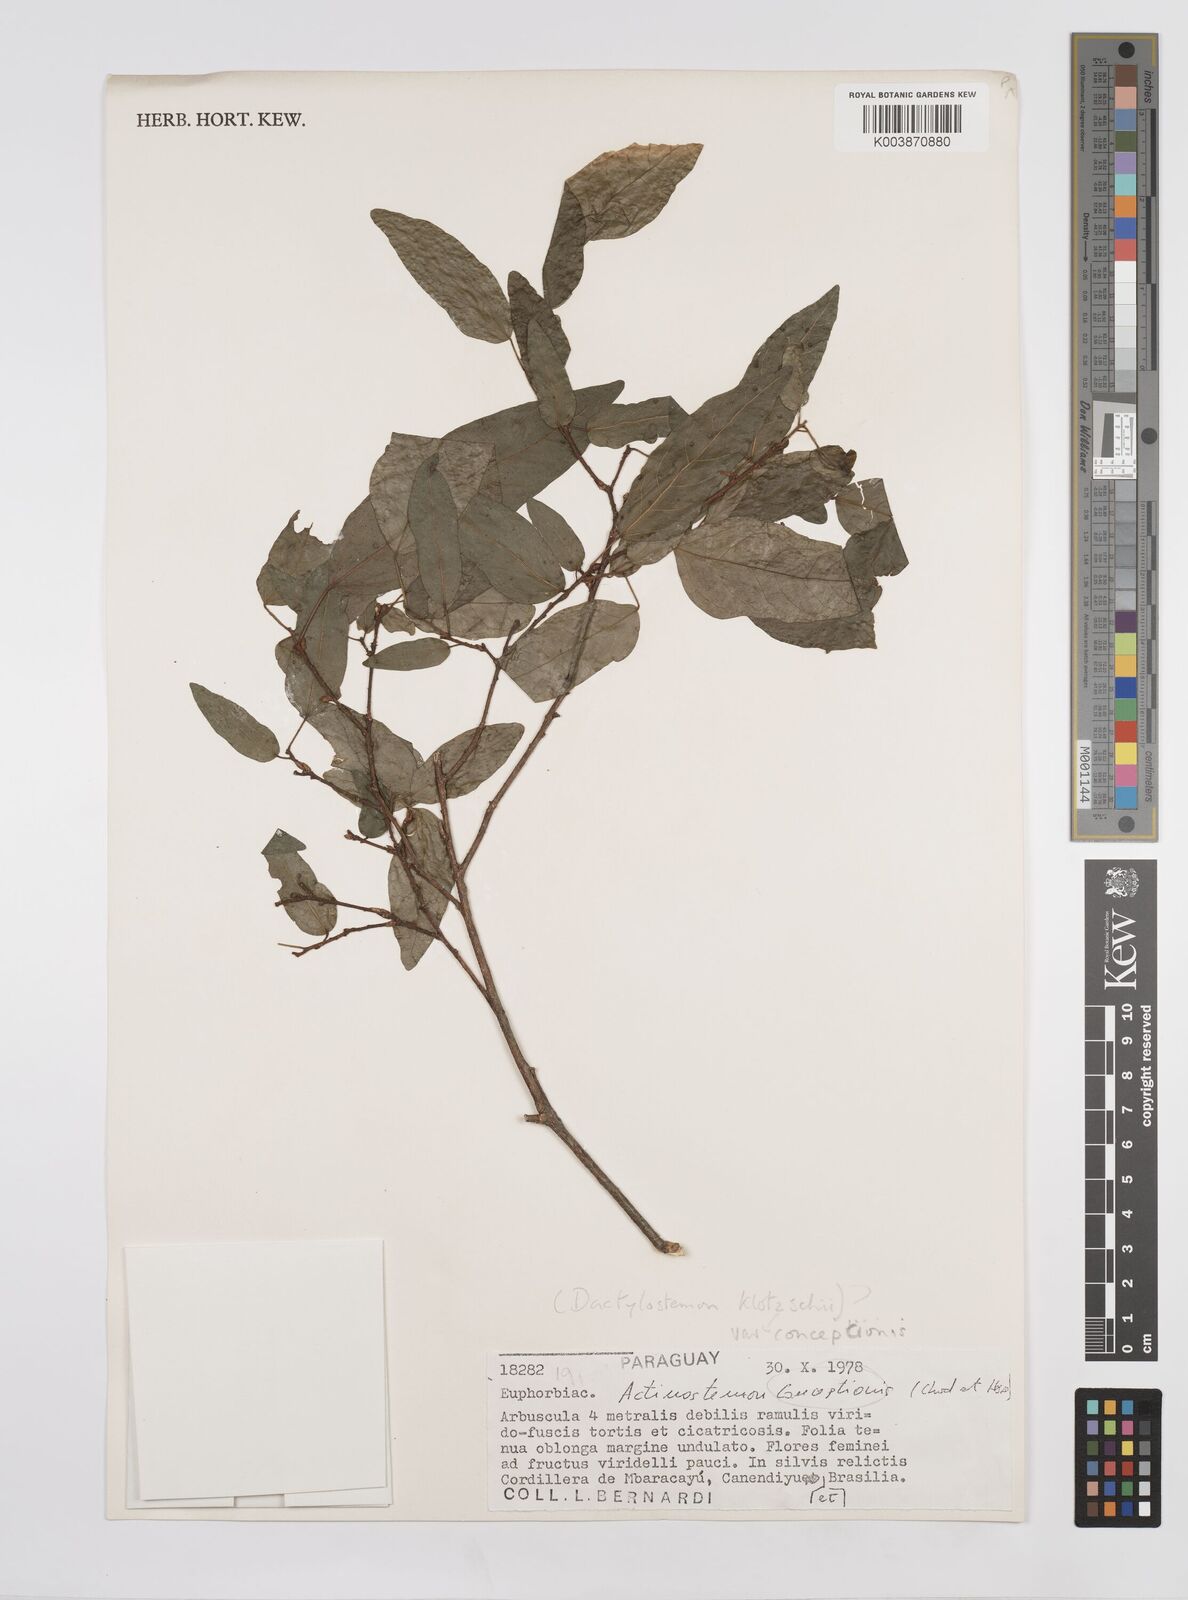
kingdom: Plantae
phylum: Tracheophyta
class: Magnoliopsida
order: Malpighiales
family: Euphorbiaceae
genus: Actinostemon
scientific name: Actinostemon concepcionis
